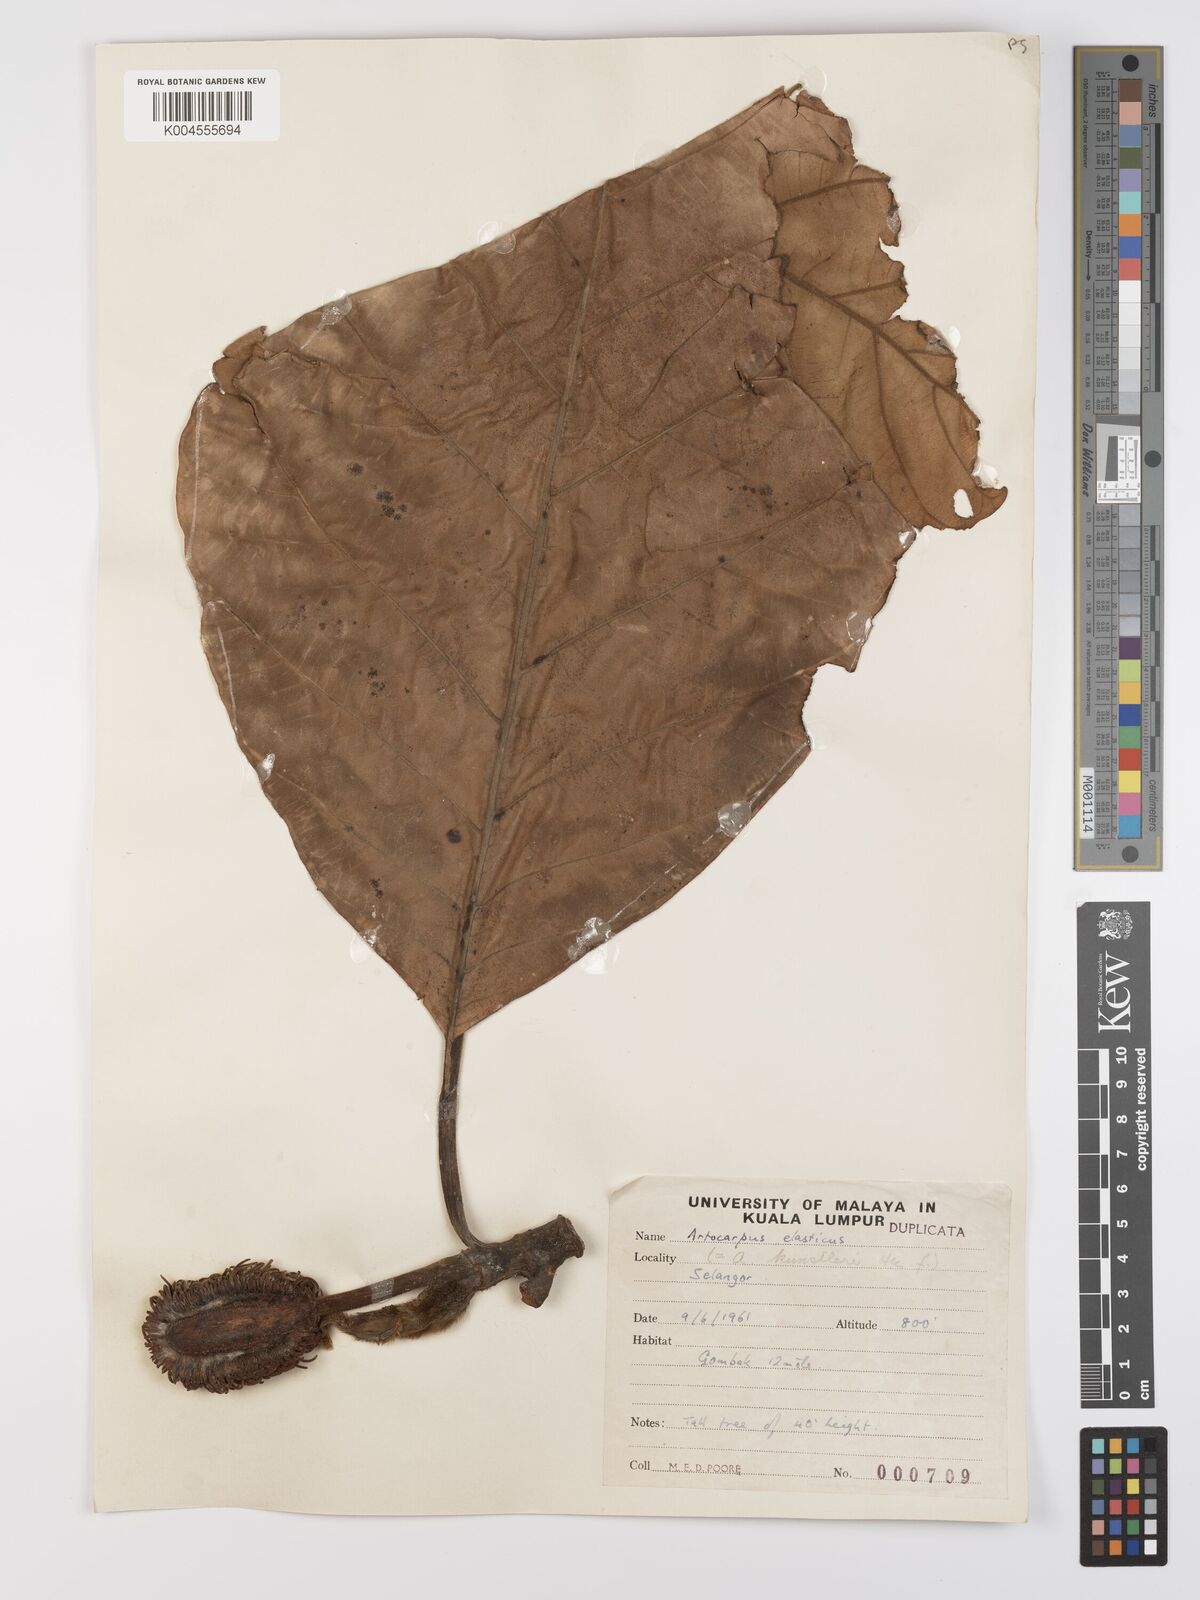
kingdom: Plantae
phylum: Tracheophyta
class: Magnoliopsida
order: Rosales
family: Moraceae
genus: Artocarpus
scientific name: Artocarpus elasticus
